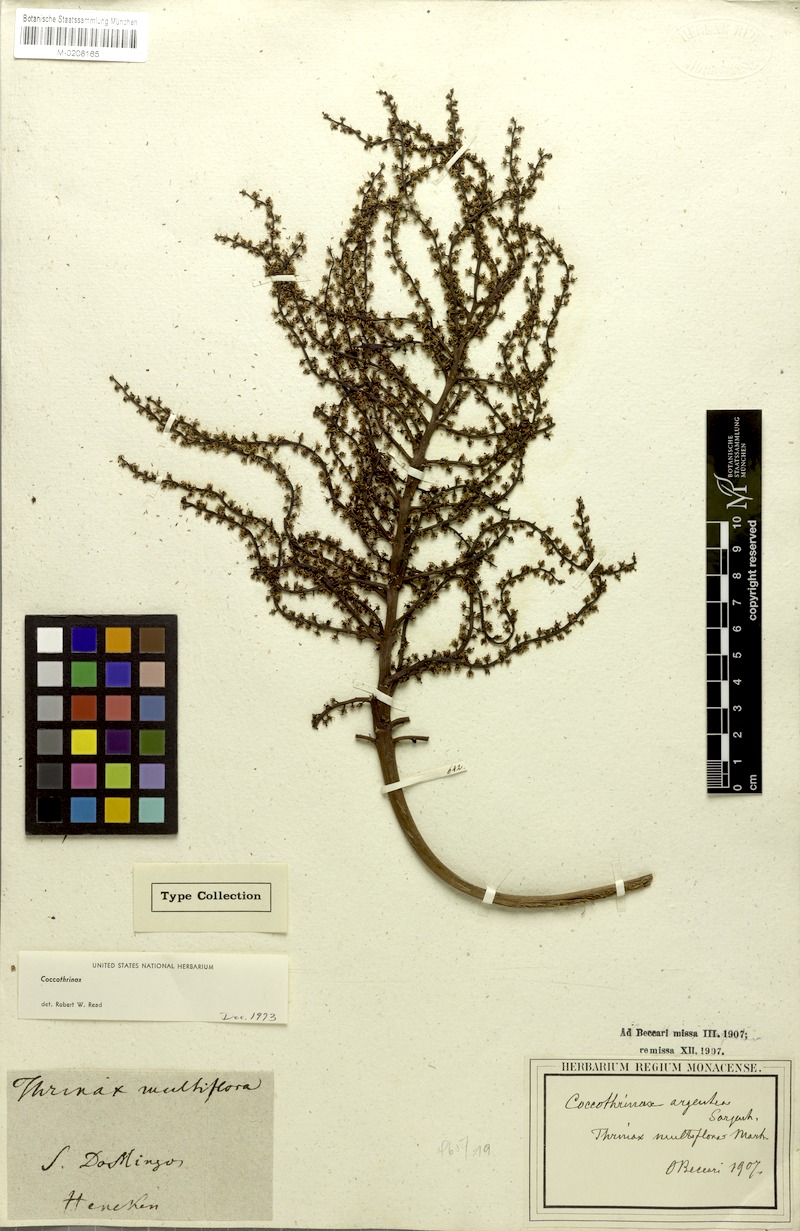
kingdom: Plantae
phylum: Tracheophyta
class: Liliopsida
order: Arecales
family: Arecaceae
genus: Coccothrinax
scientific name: Coccothrinax argentea
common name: Broom palm
